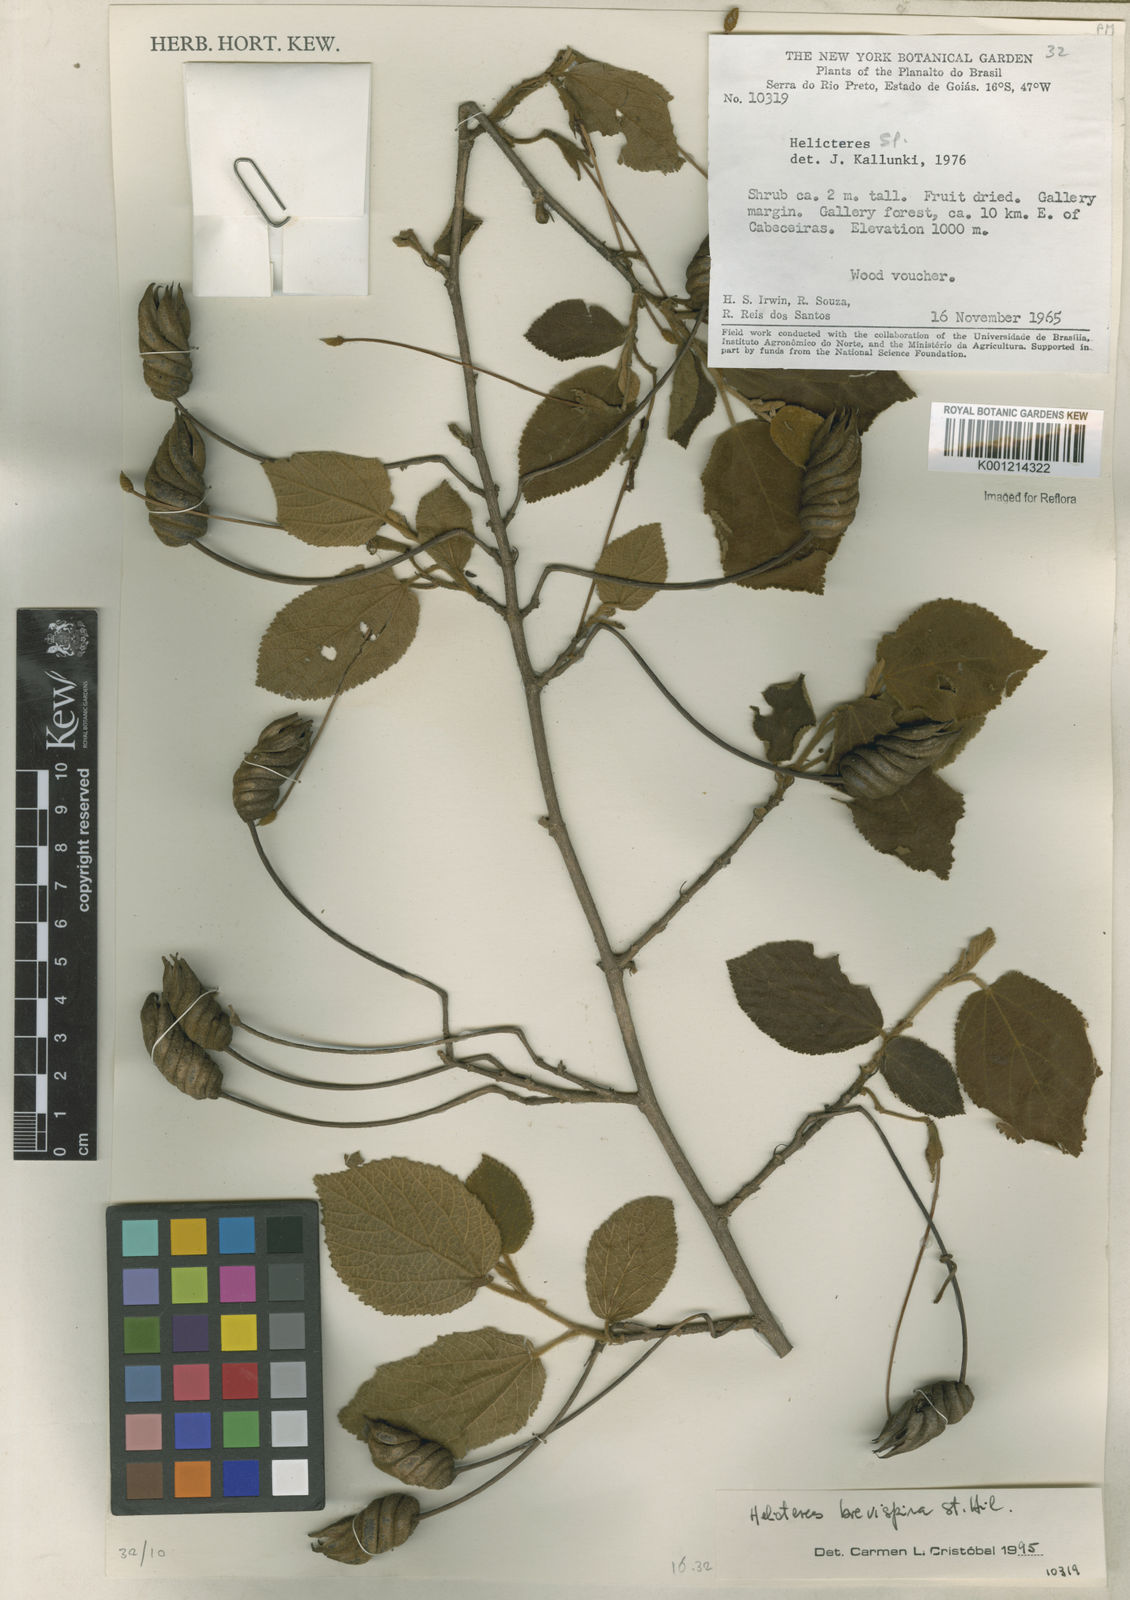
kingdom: Plantae
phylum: Tracheophyta
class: Magnoliopsida
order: Malvales
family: Malvaceae
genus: Helicteres
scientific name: Helicteres
